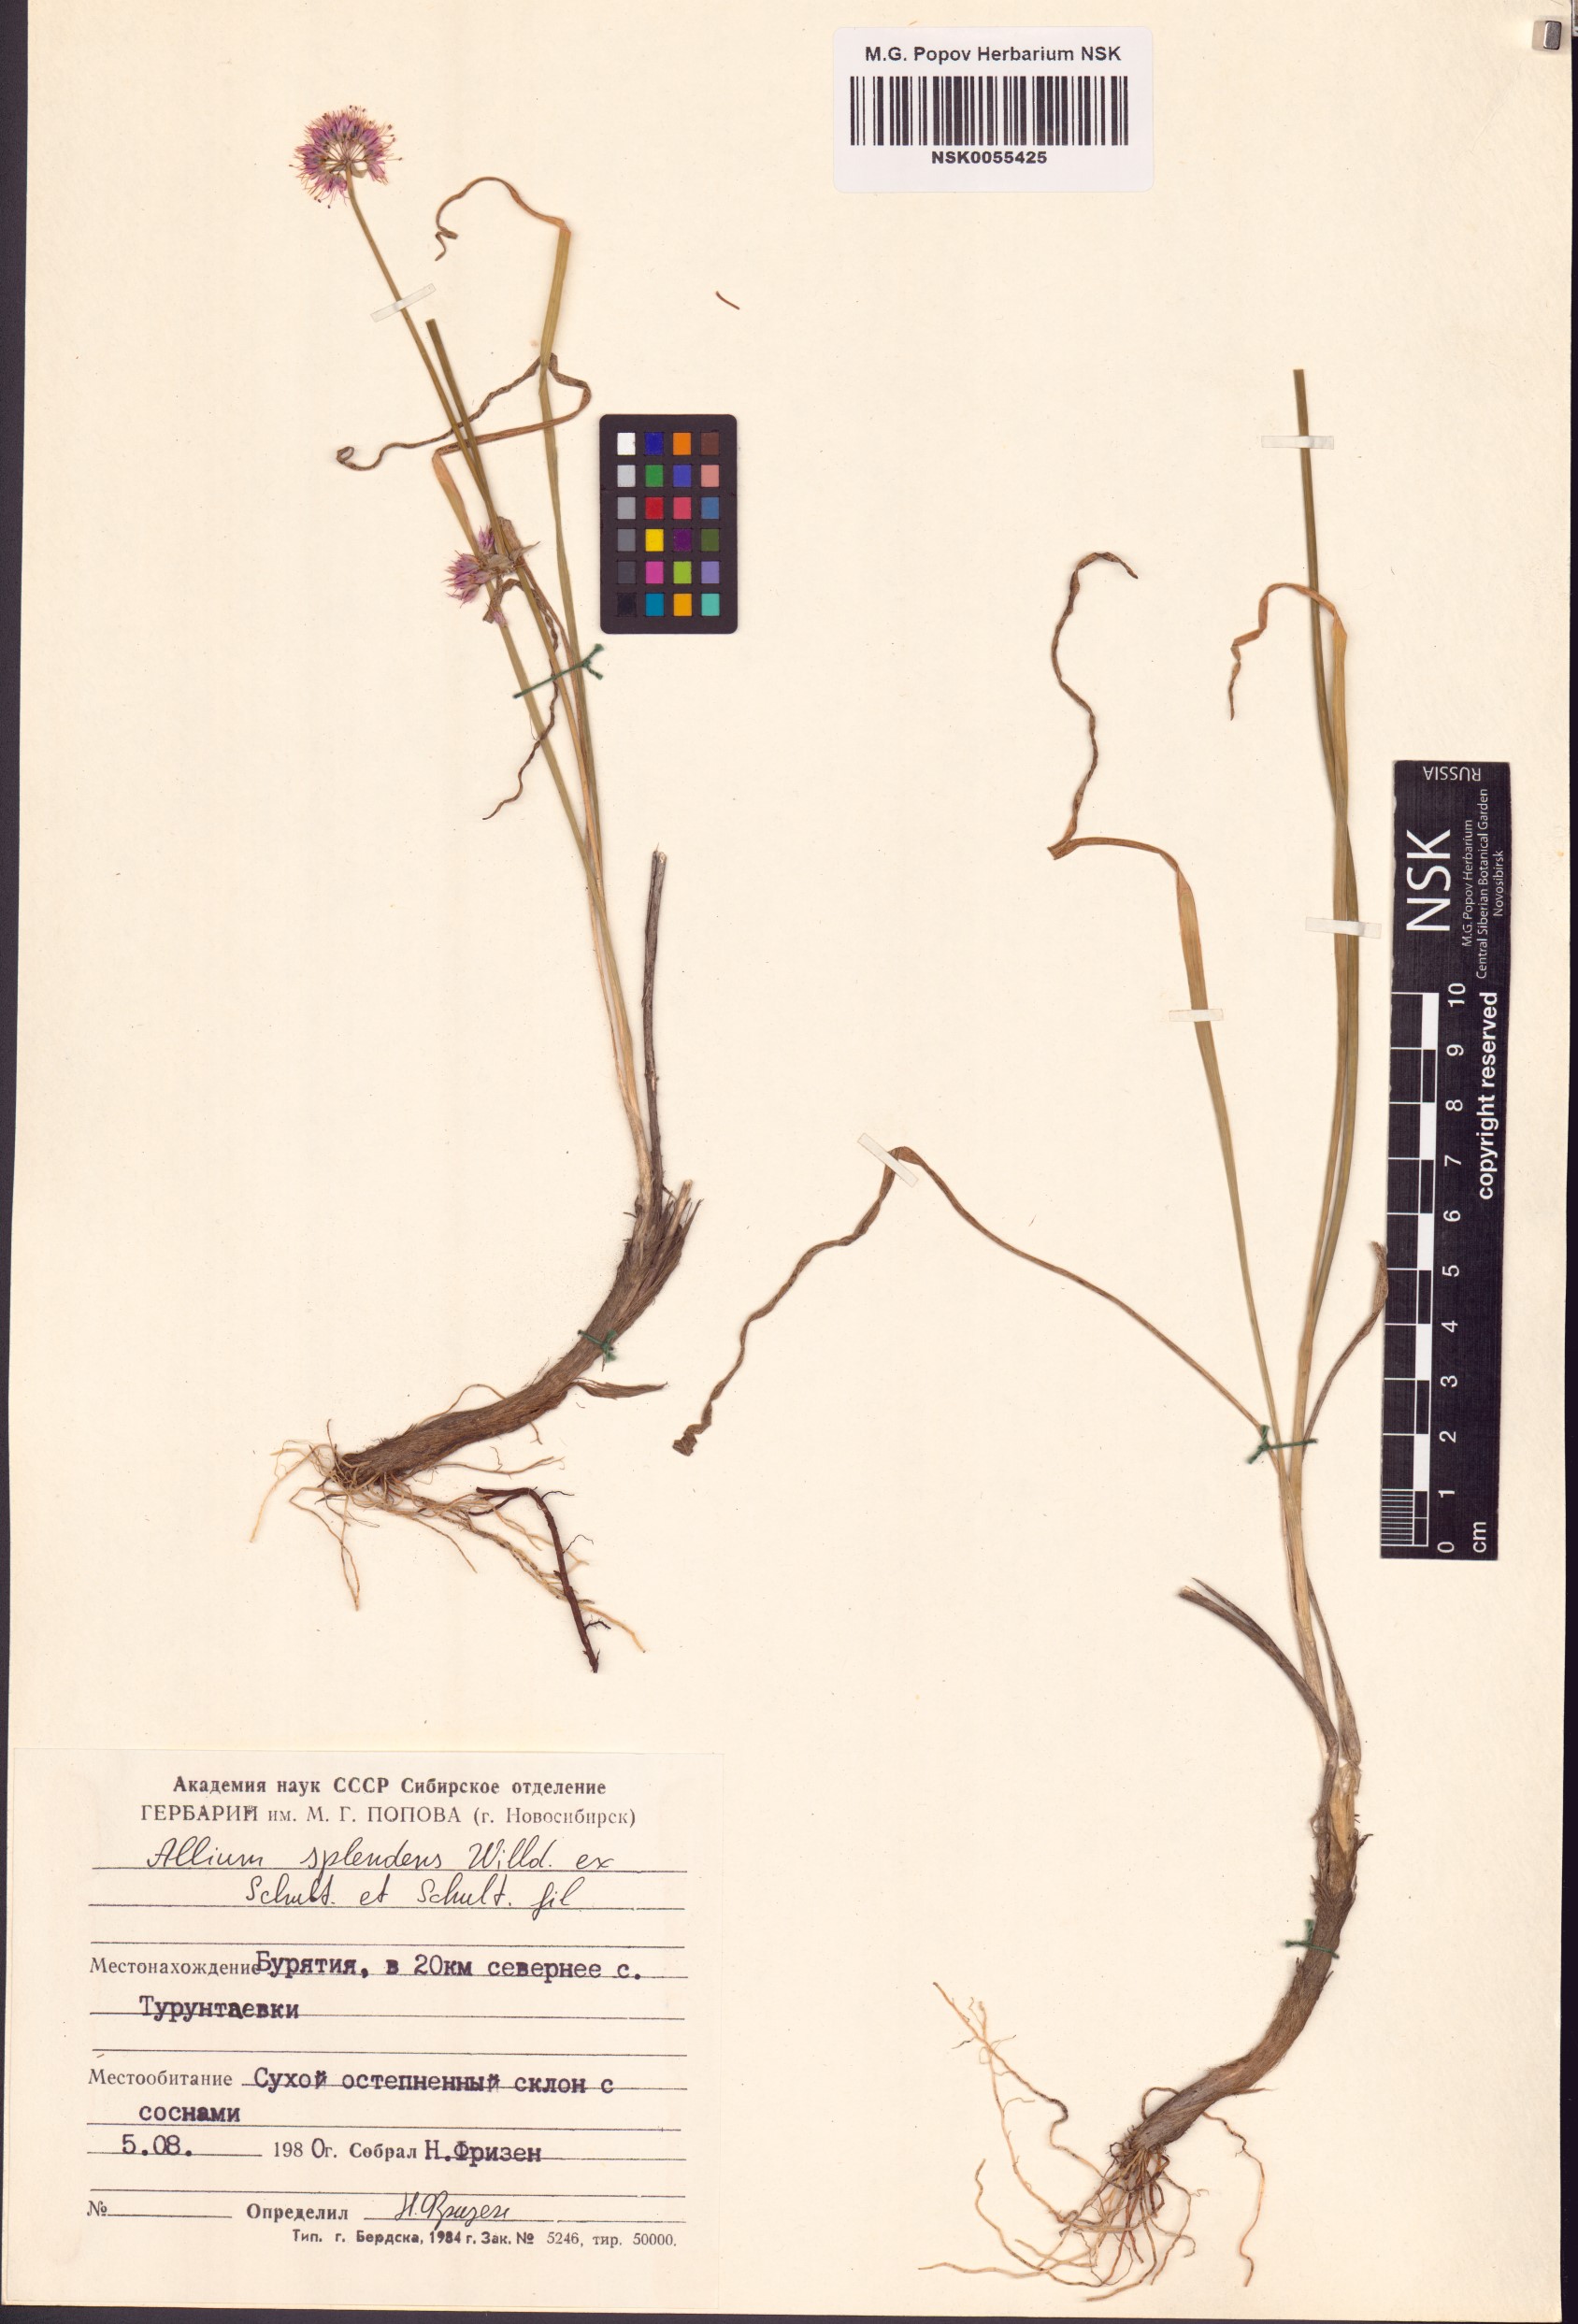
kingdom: Plantae
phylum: Tracheophyta
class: Liliopsida
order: Asparagales
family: Amaryllidaceae
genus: Allium
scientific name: Allium splendens
